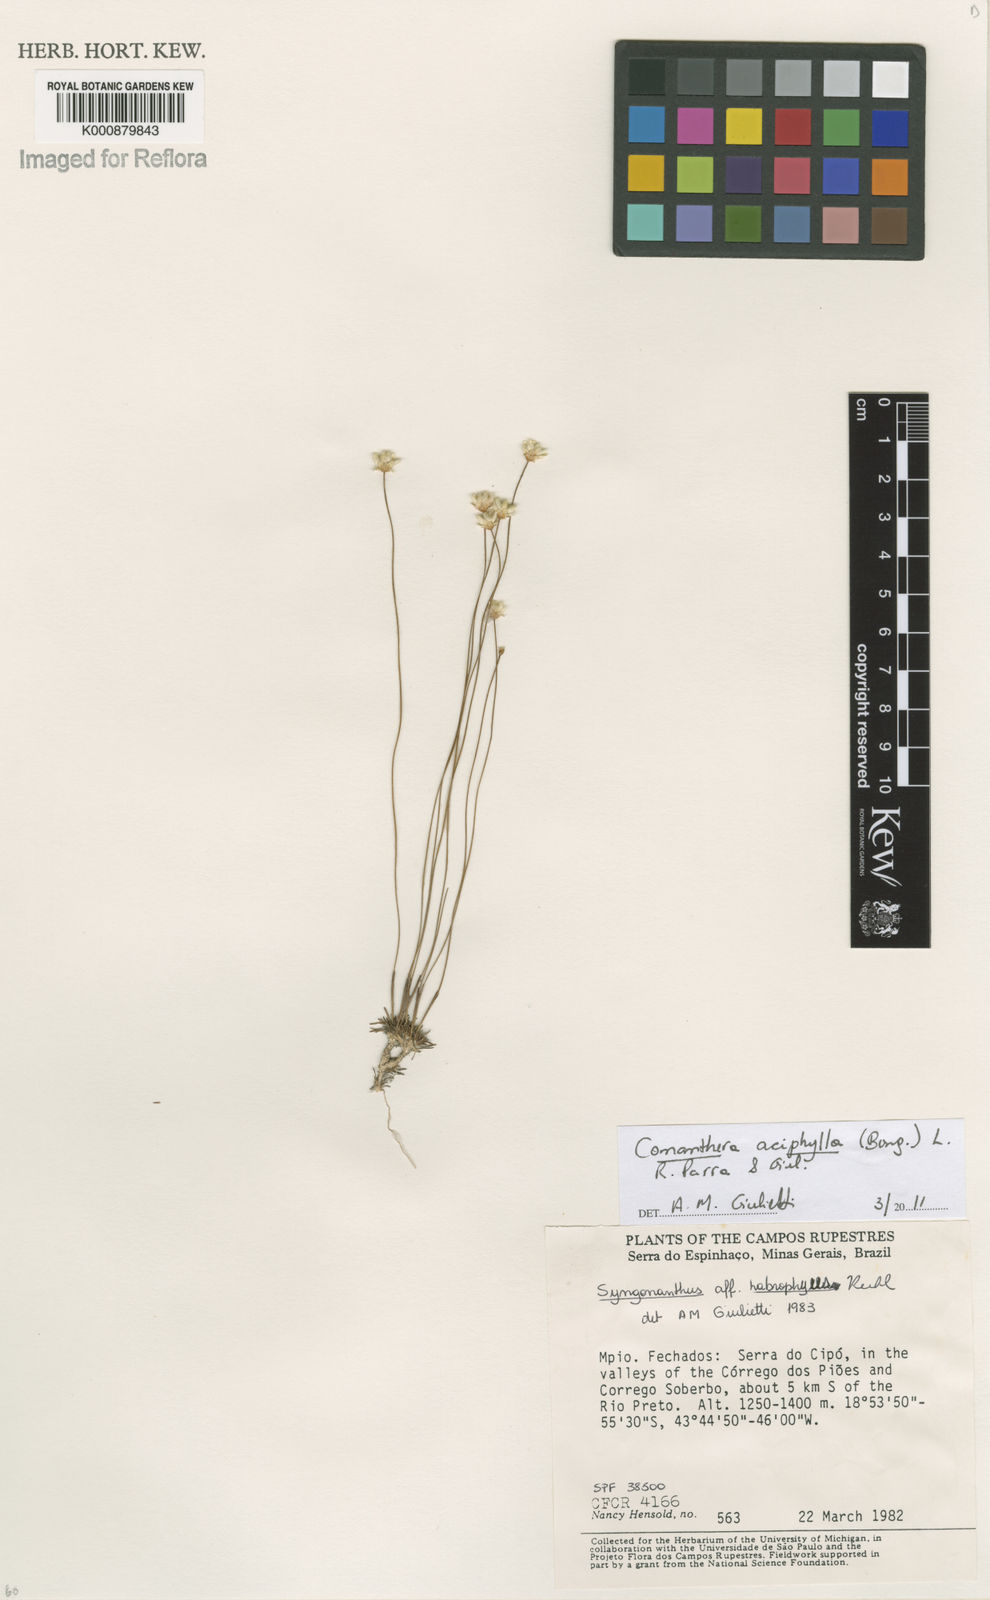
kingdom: Plantae
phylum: Tracheophyta
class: Liliopsida
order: Poales
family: Eriocaulaceae
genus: Comanthera
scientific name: Comanthera aciphylla
